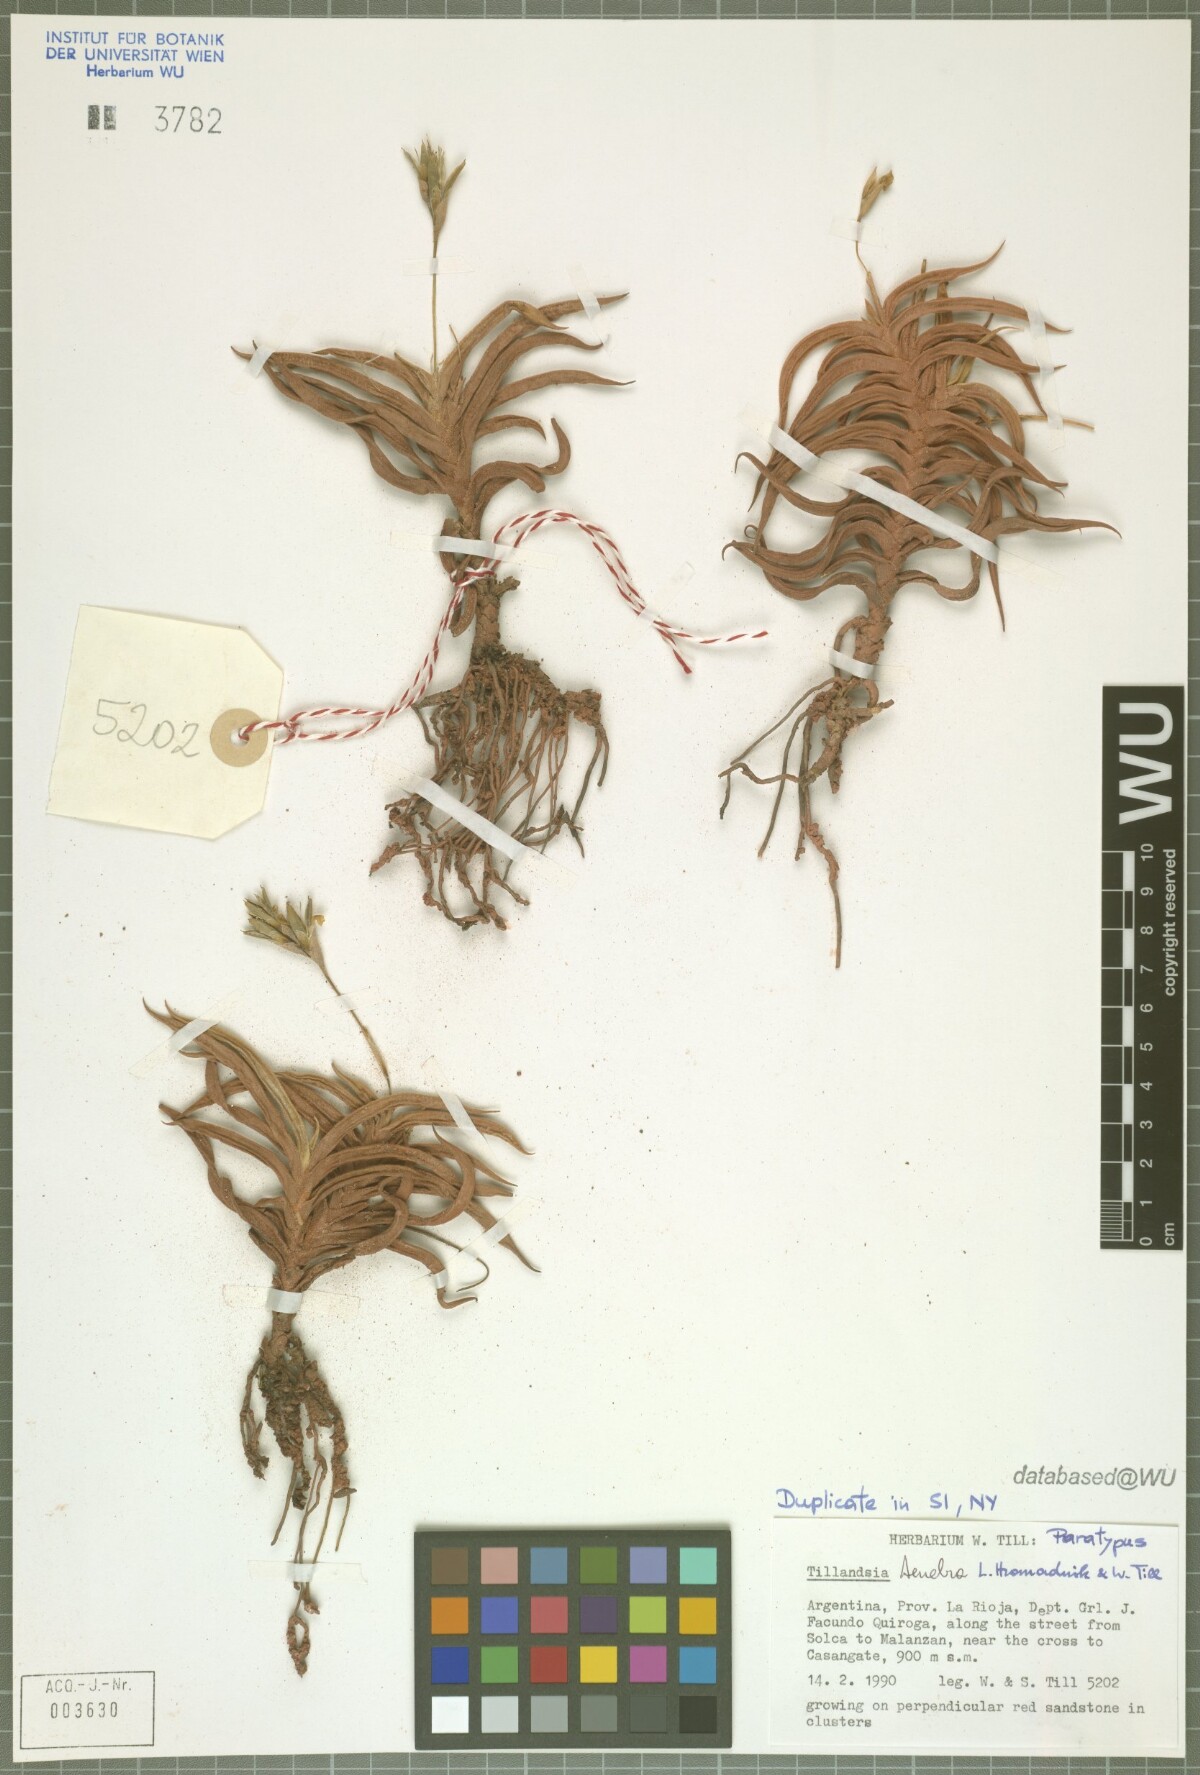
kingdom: Plantae
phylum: Tracheophyta
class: Liliopsida
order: Poales
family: Bromeliaceae
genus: Tillandsia
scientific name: Tillandsia tenebra
